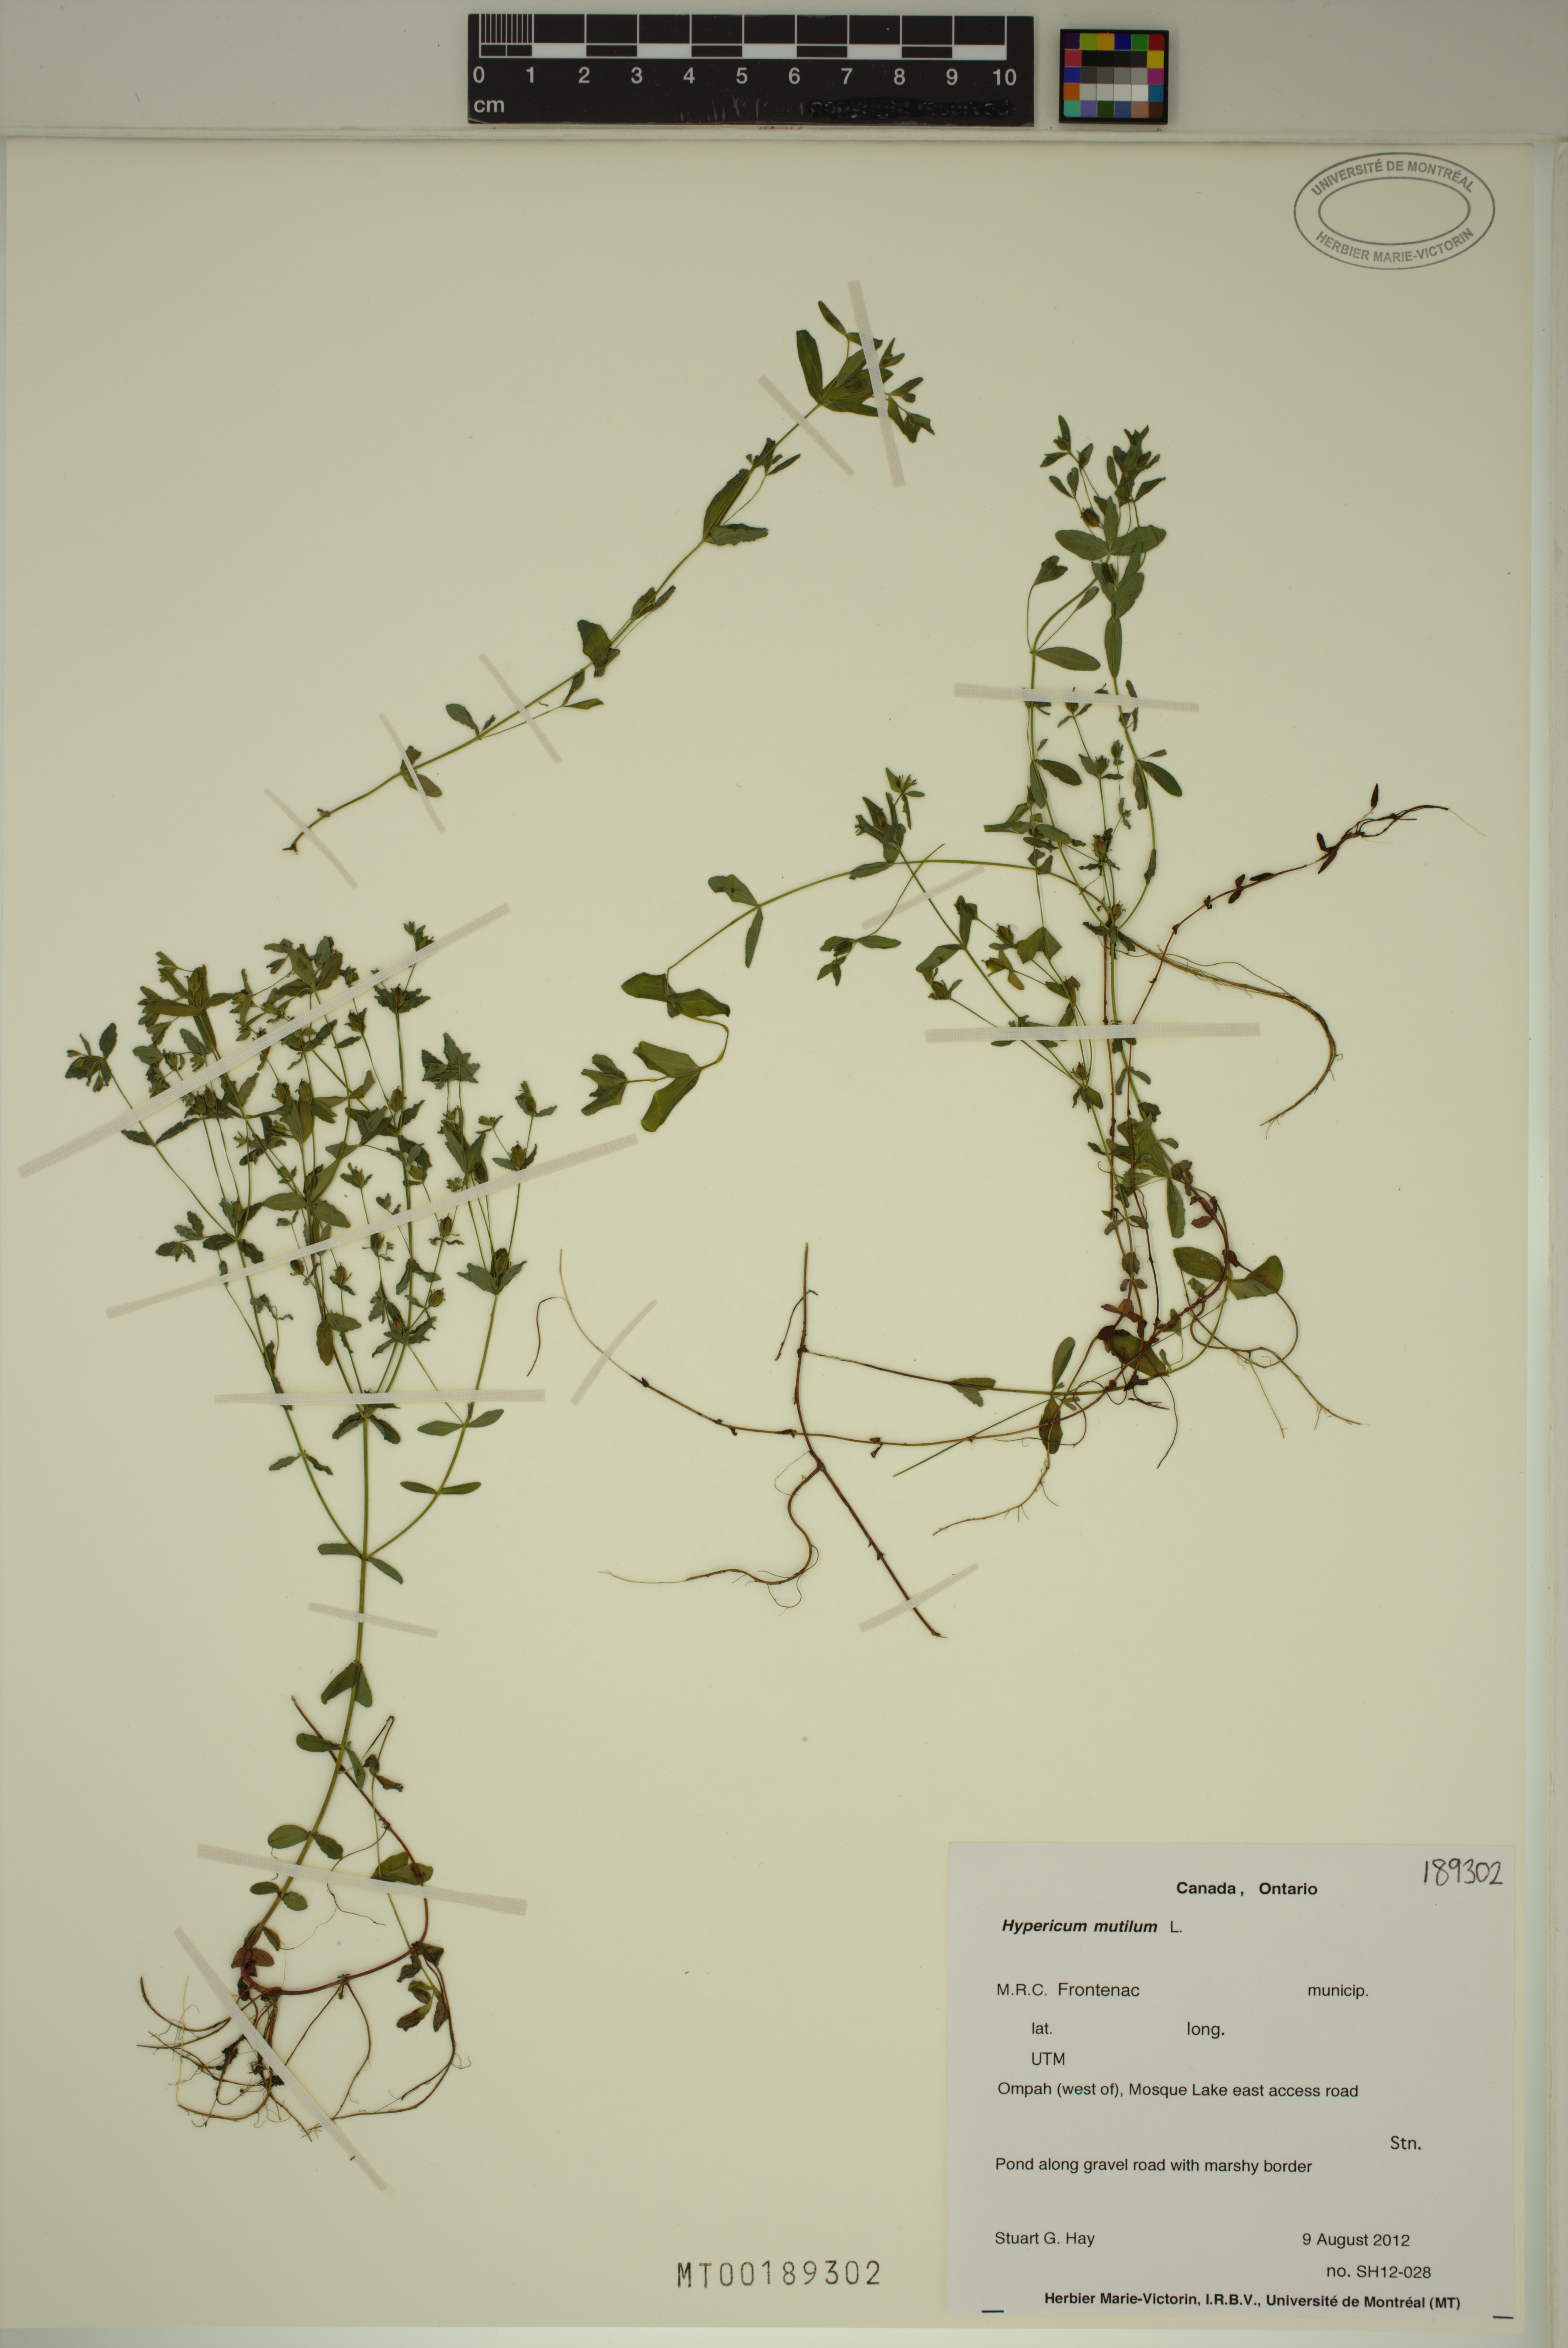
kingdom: Plantae
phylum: Tracheophyta
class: Magnoliopsida
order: Malpighiales
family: Hypericaceae
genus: Hypericum
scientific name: Hypericum mutilum
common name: Dwarf st. john's-wort
